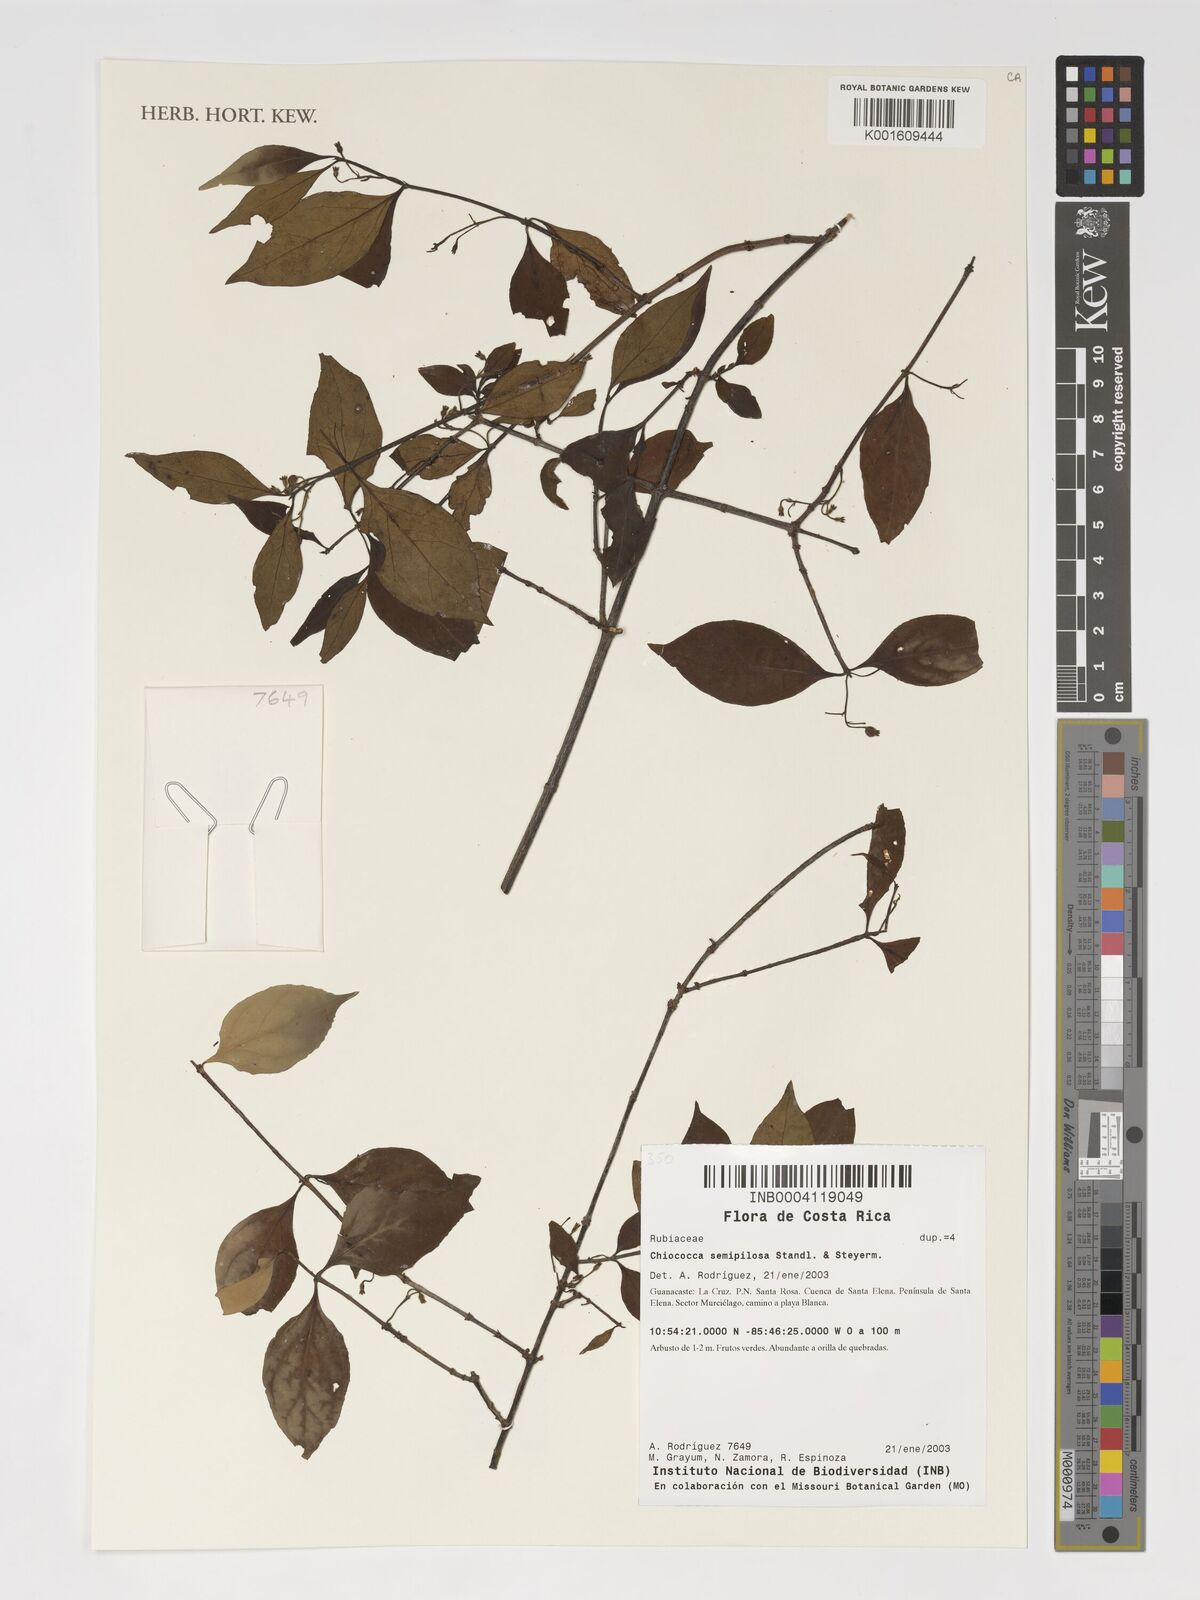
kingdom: Plantae
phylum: Tracheophyta
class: Magnoliopsida
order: Gentianales
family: Rubiaceae
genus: Chiococca
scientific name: Chiococca semipilosa
